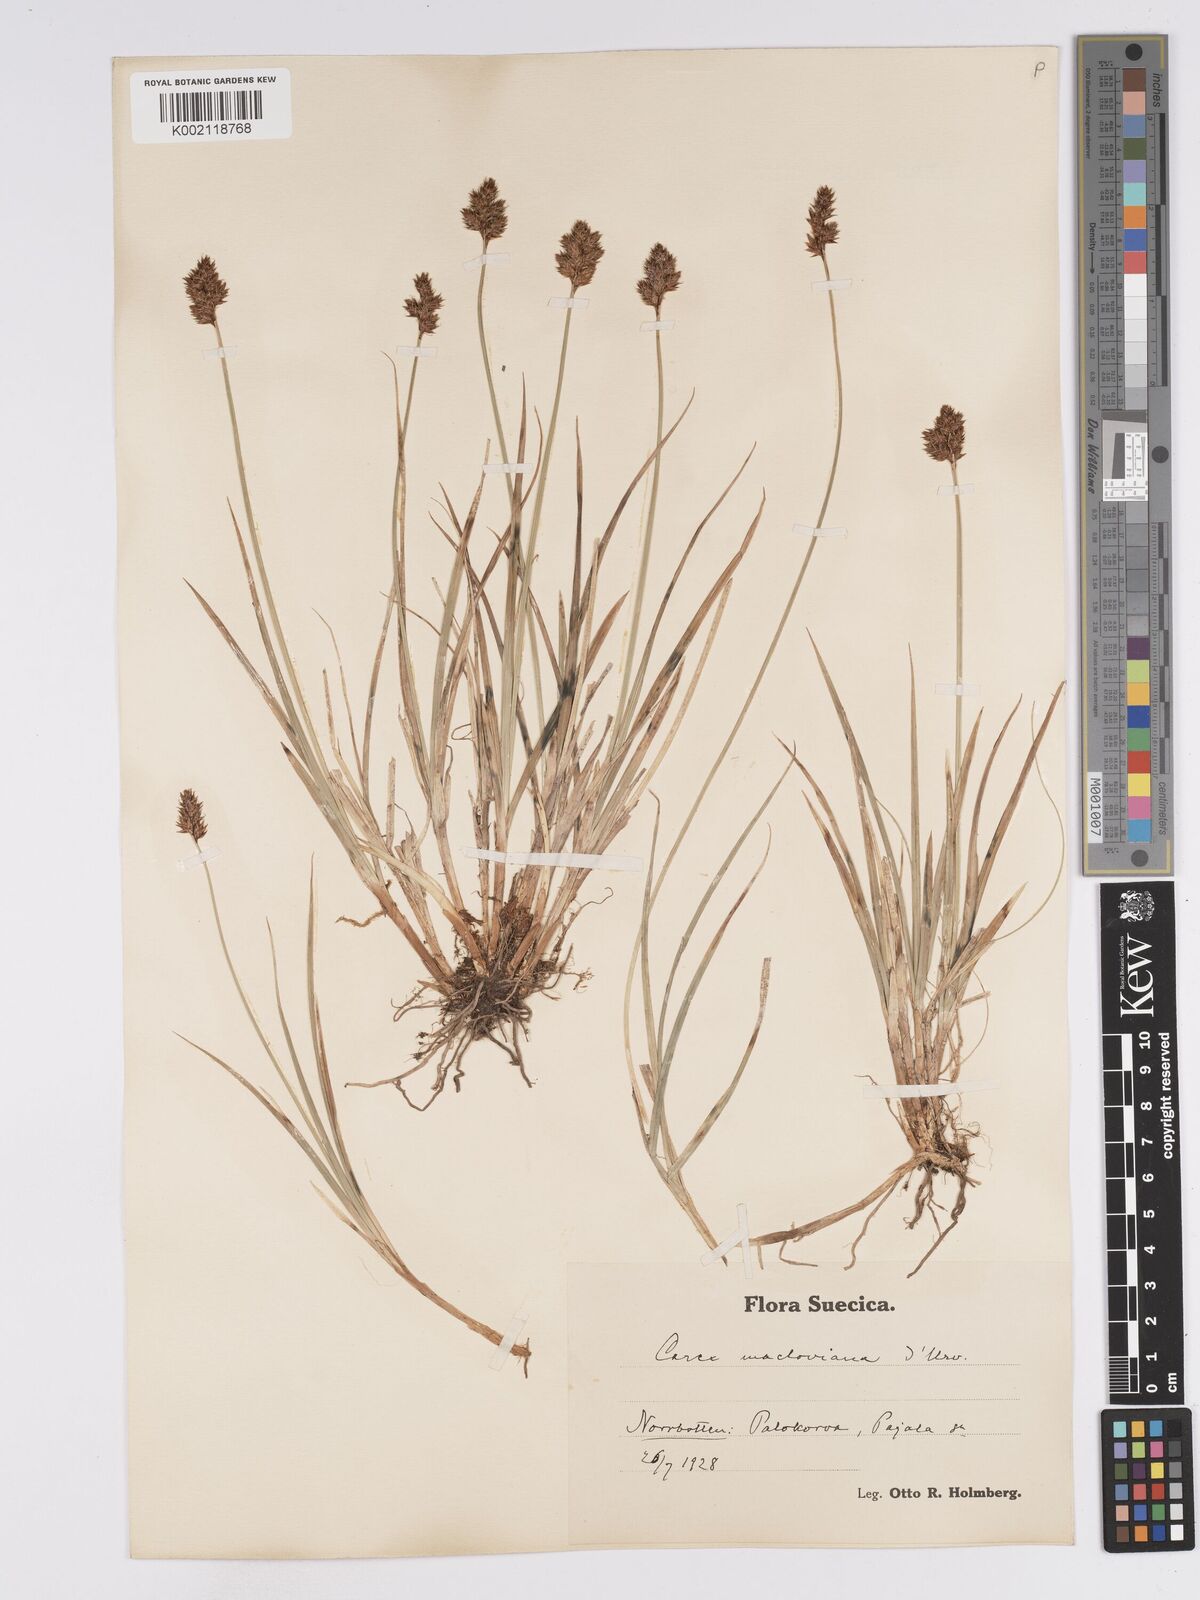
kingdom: Plantae
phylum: Tracheophyta
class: Liliopsida
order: Poales
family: Cyperaceae
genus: Carex
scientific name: Carex macloviana
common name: Falkland island sedge
